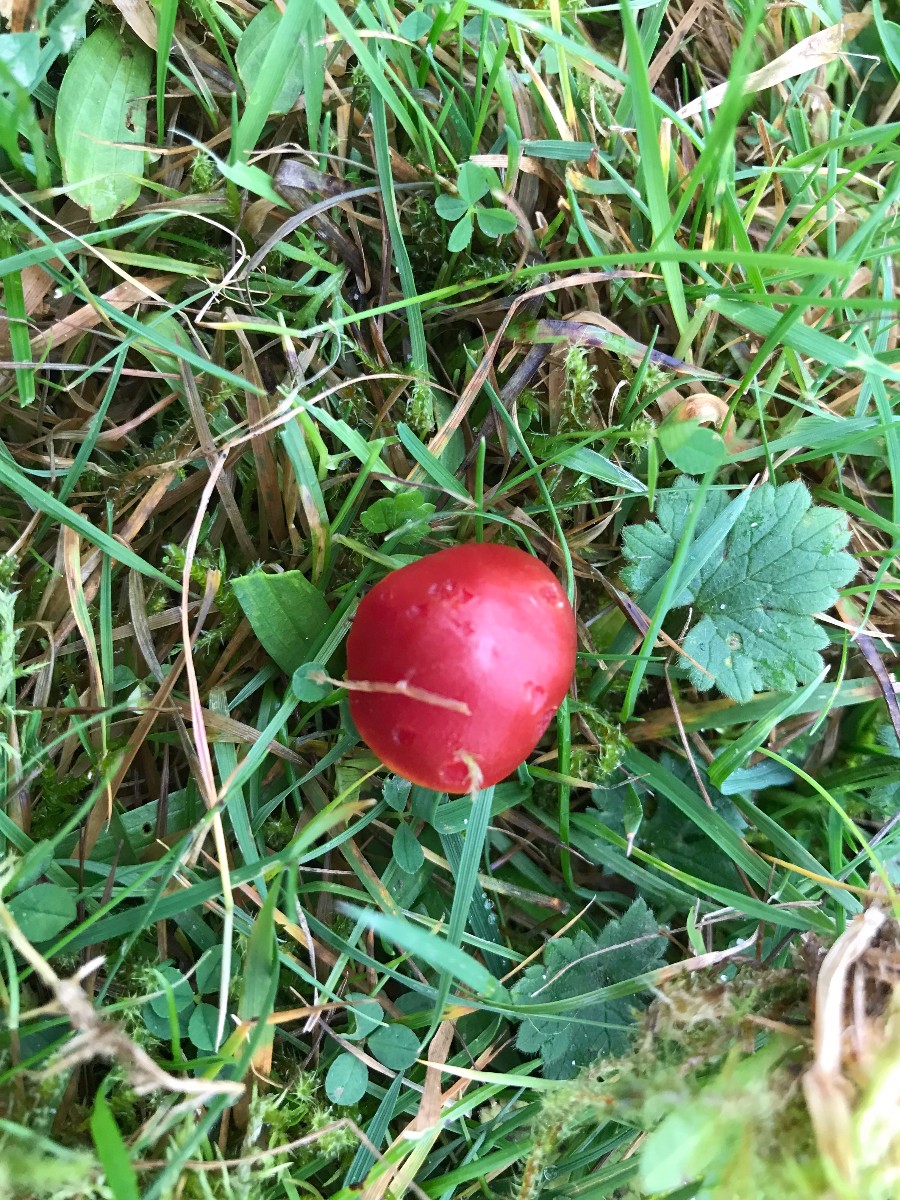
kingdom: Fungi
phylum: Basidiomycota
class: Agaricomycetes
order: Agaricales
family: Hygrophoraceae
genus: Hygrocybe
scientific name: Hygrocybe coccinea
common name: cinnober-vokshat
